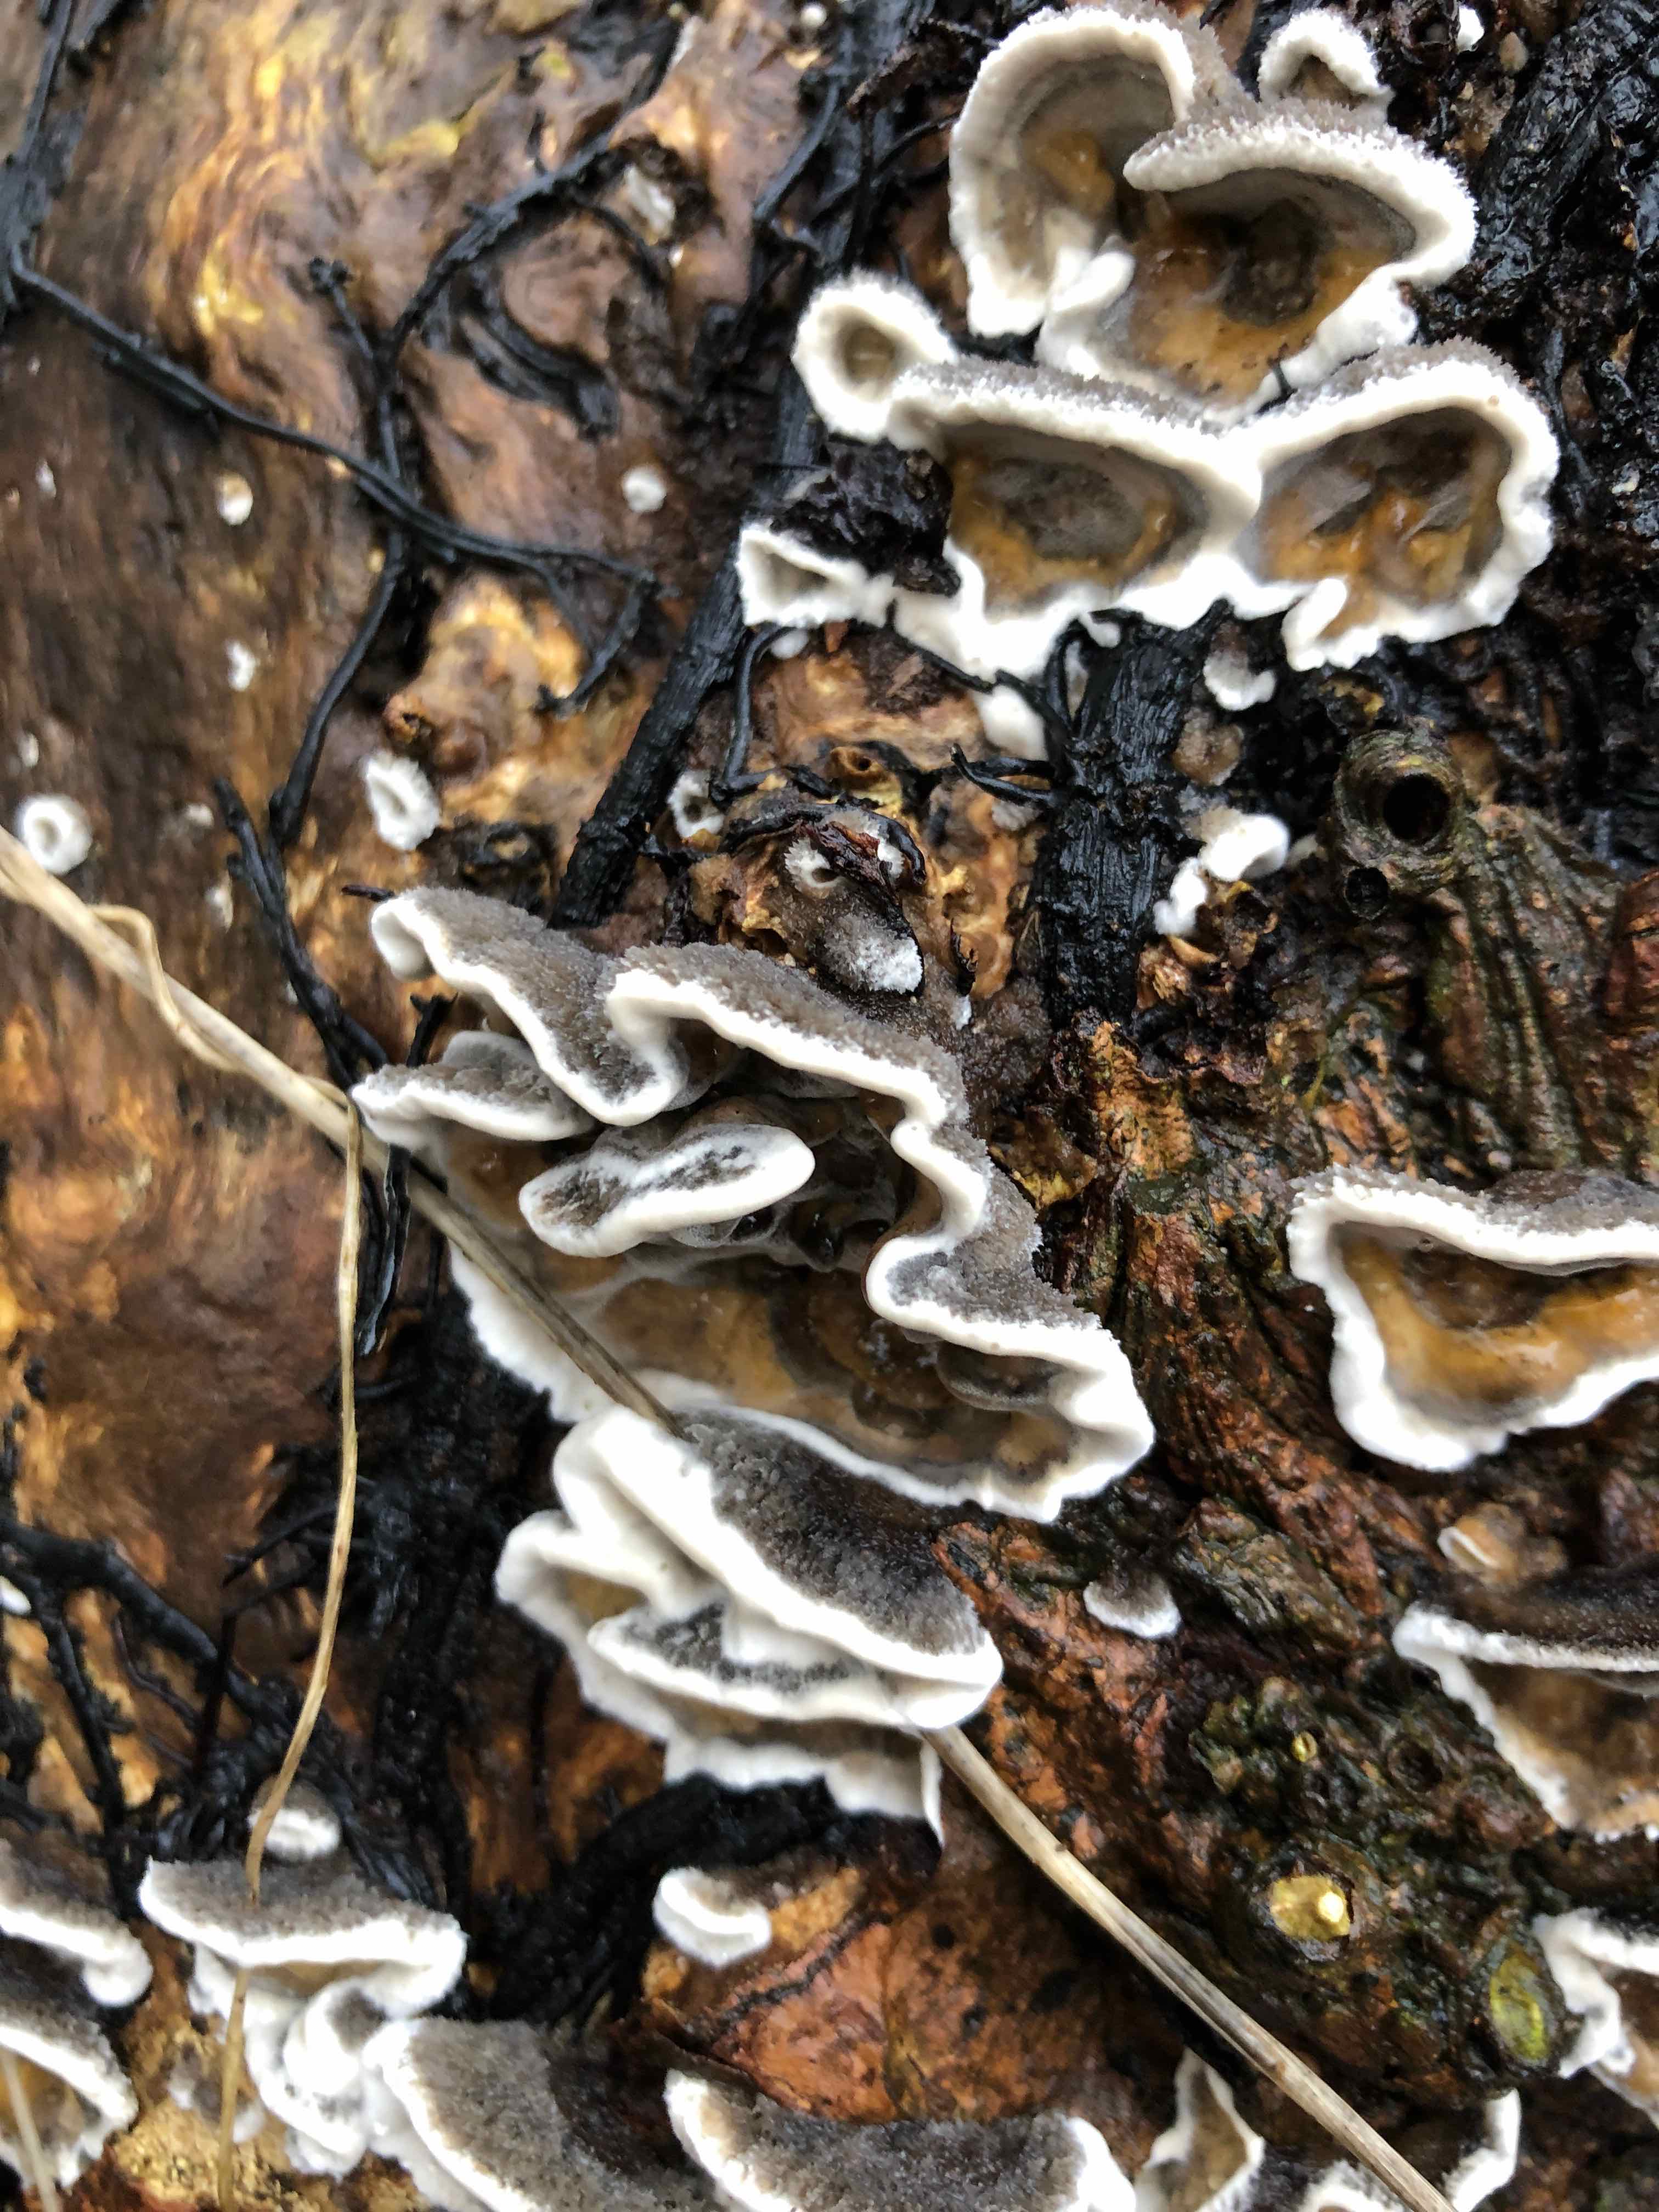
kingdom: Fungi
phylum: Basidiomycota
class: Agaricomycetes
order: Polyporales
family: Phanerochaetaceae
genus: Bjerkandera
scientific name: Bjerkandera adusta
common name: sveden sodporesvamp
